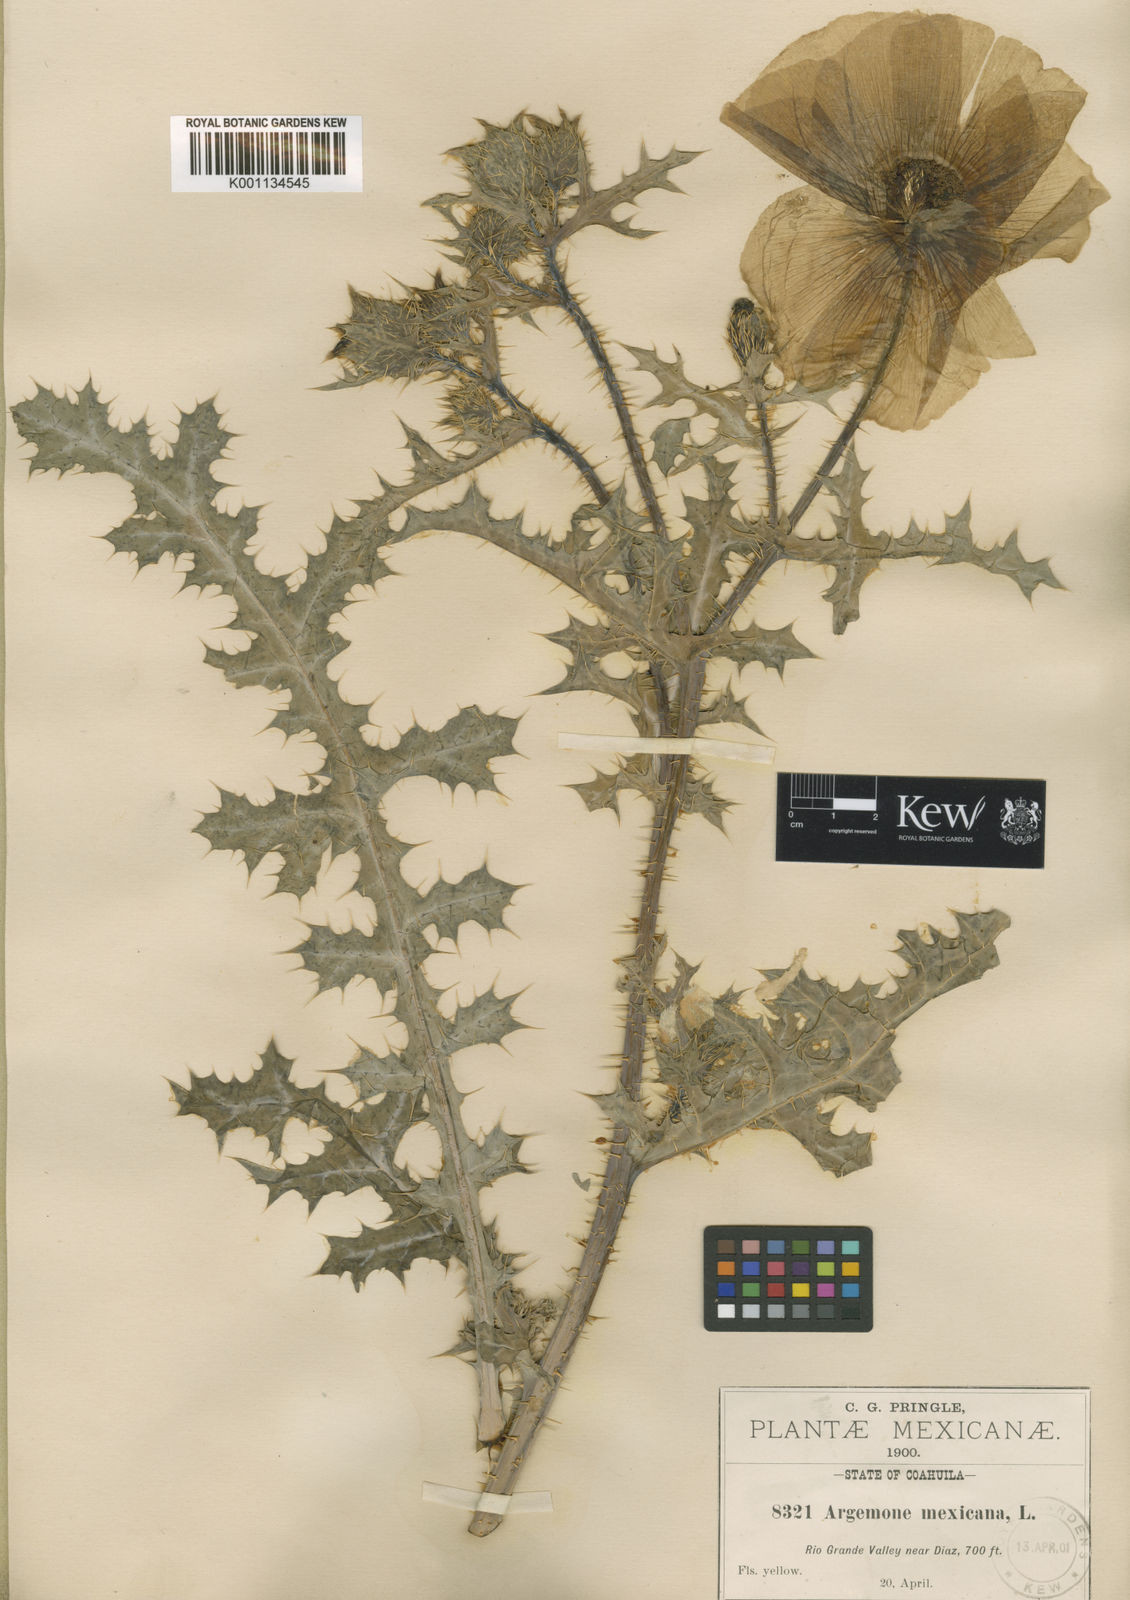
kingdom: Plantae
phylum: Tracheophyta
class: Magnoliopsida
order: Ranunculales
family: Papaveraceae
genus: Argemone
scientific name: Argemone mexicana
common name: Mexican poppy
